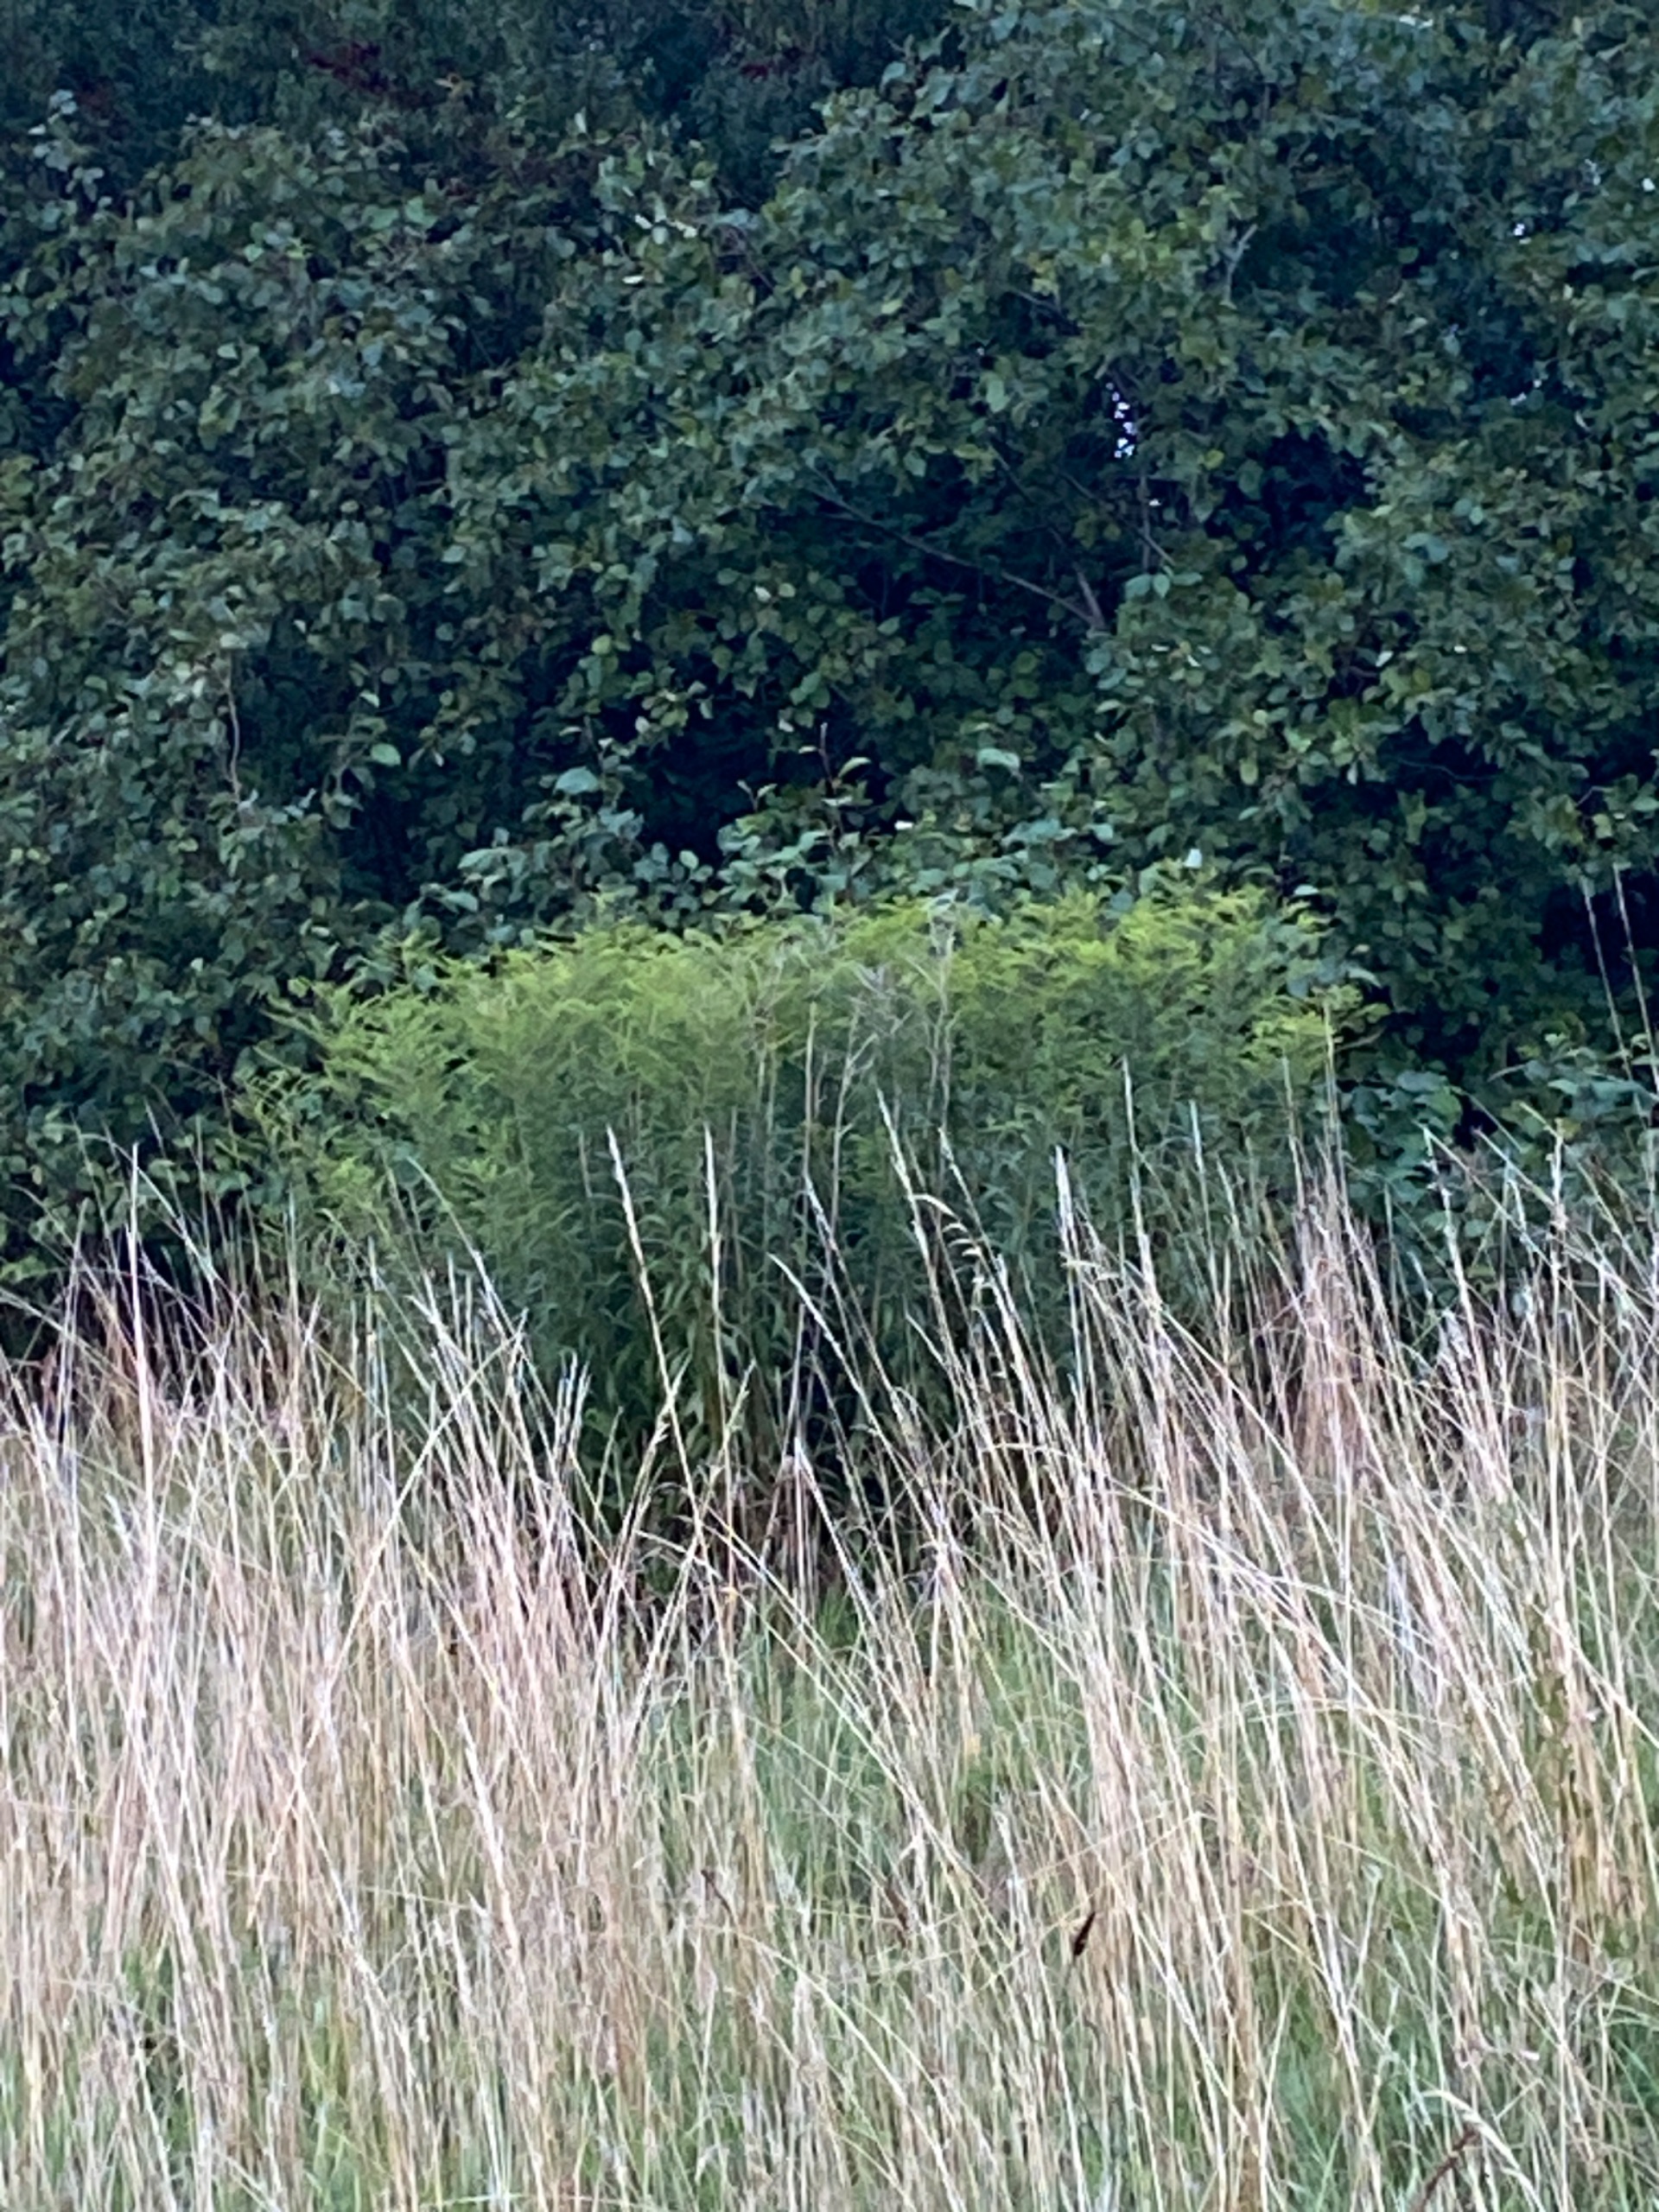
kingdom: Plantae
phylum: Tracheophyta
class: Magnoliopsida
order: Asterales
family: Asteraceae
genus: Solidago
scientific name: Solidago
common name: Gyldenrisslægten
